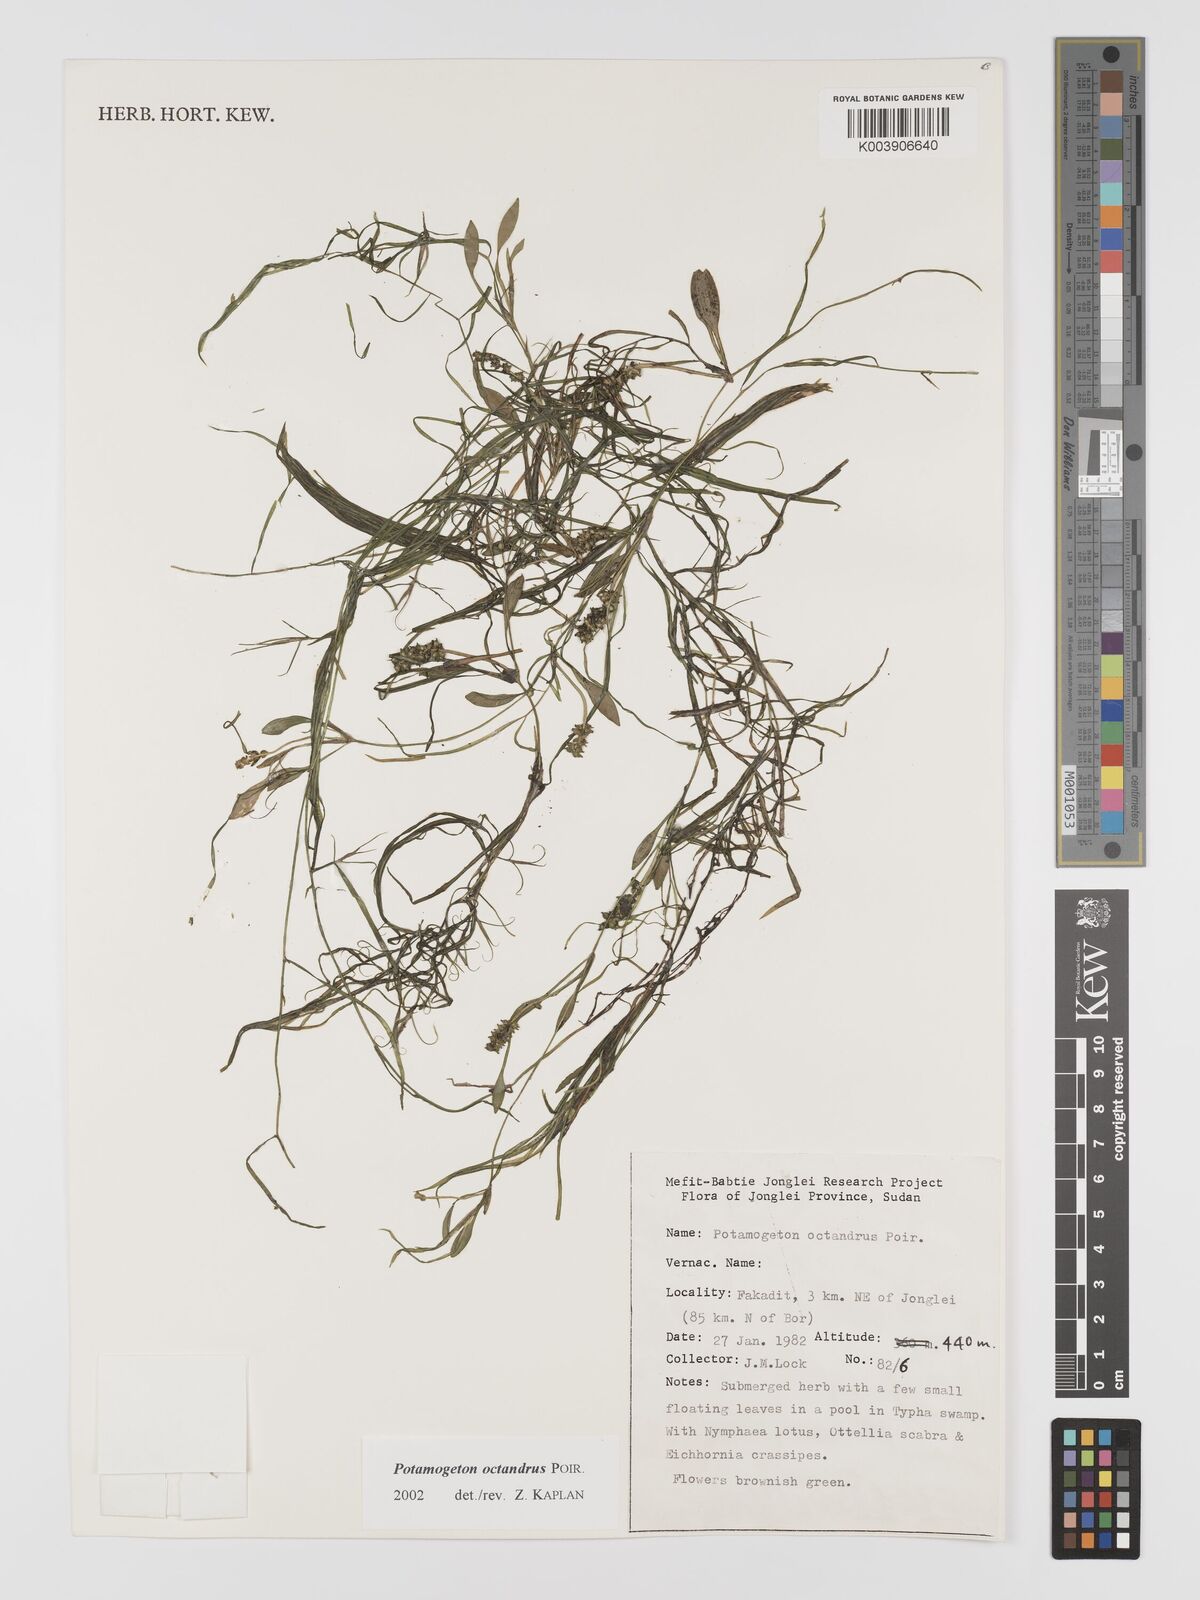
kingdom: Plantae
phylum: Tracheophyta
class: Liliopsida
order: Alismatales
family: Potamogetonaceae
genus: Potamogeton
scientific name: Potamogeton octandrus
